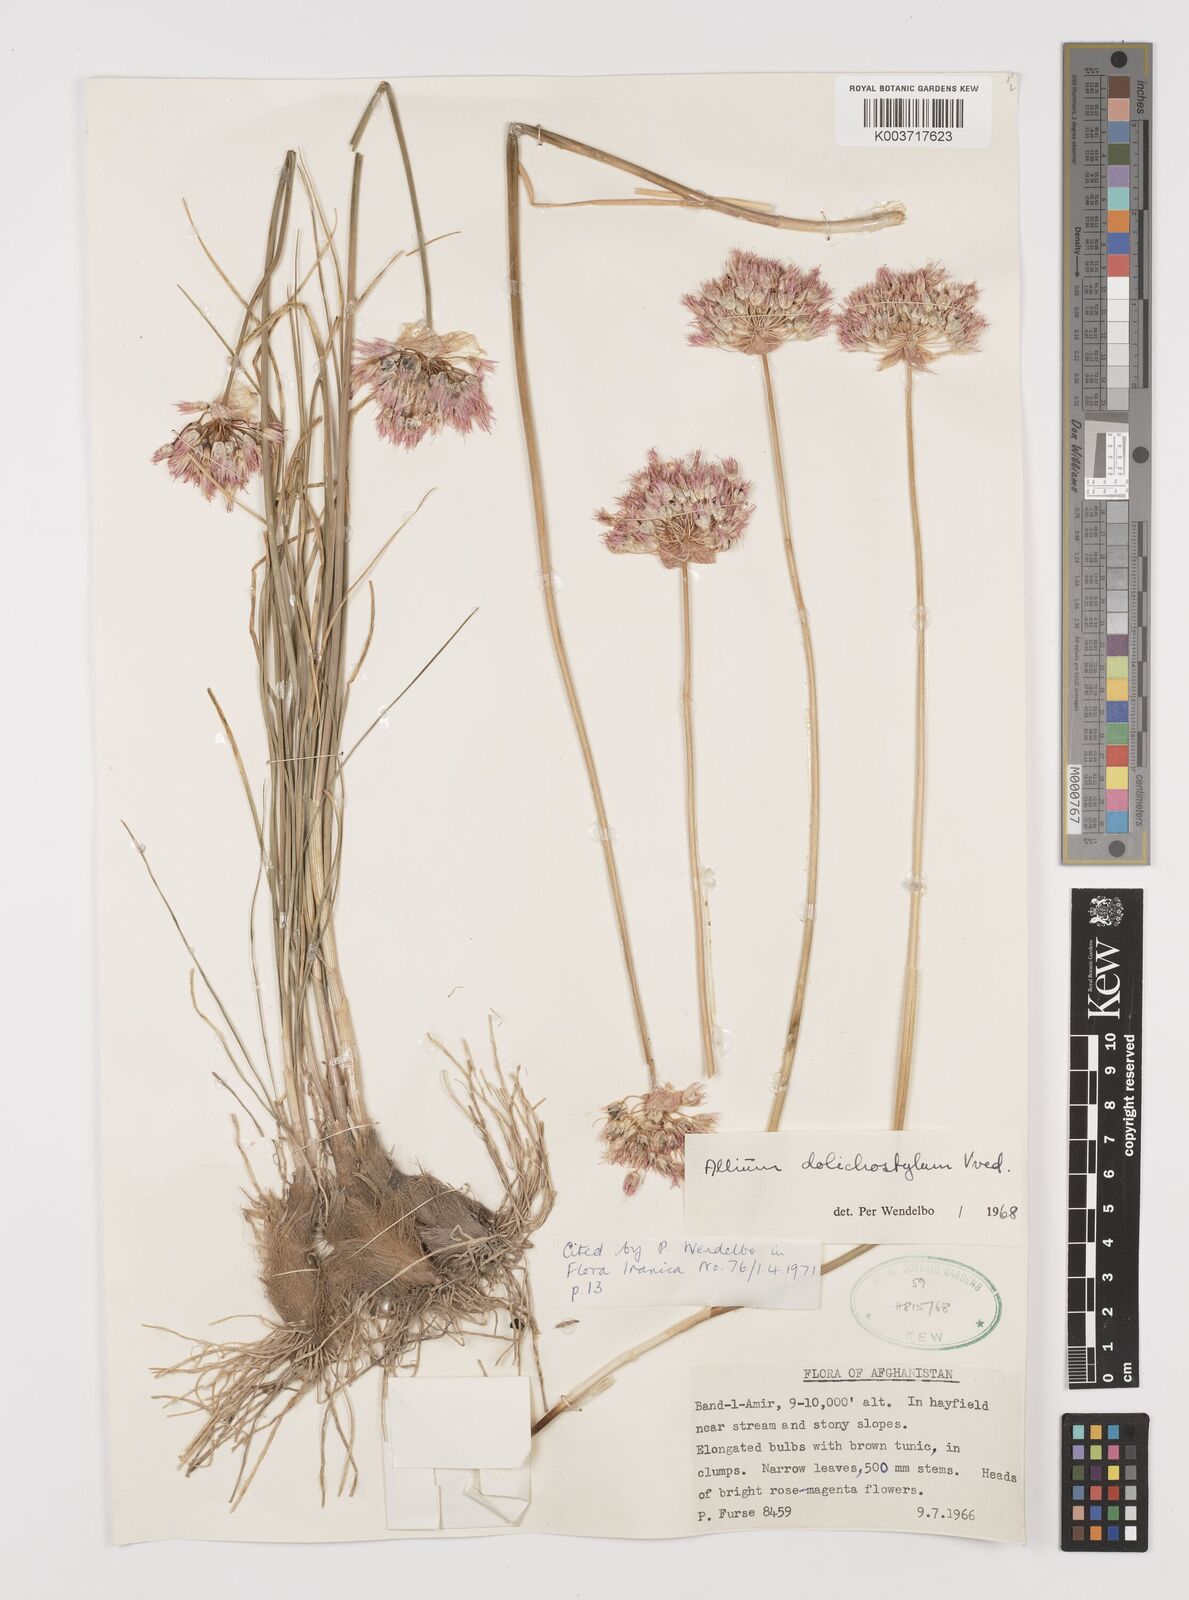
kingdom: Plantae
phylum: Tracheophyta
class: Liliopsida
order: Asparagales
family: Amaryllidaceae
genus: Allium
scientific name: Allium dolichomischum
